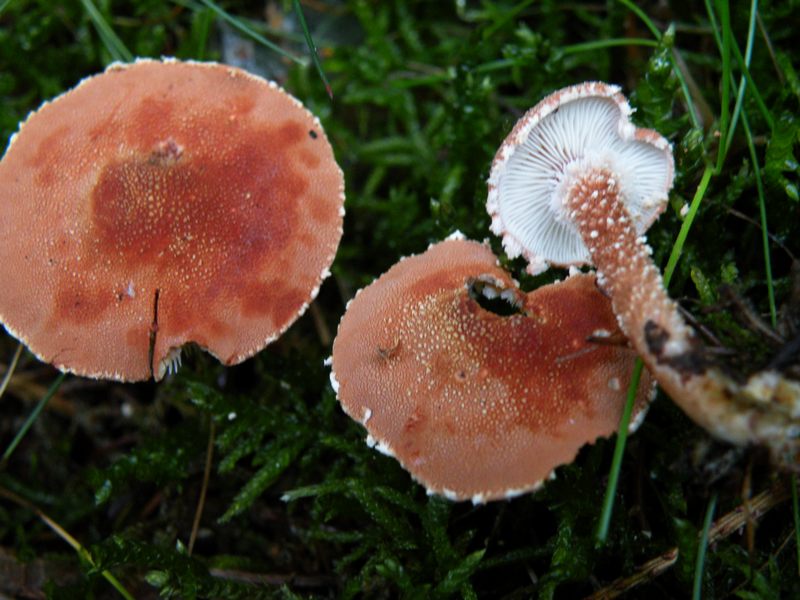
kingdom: Fungi
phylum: Basidiomycota
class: Agaricomycetes
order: Agaricales
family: Agaricaceae
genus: Cystodermella
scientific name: Cystodermella granulosa
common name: kliddet grynhat
